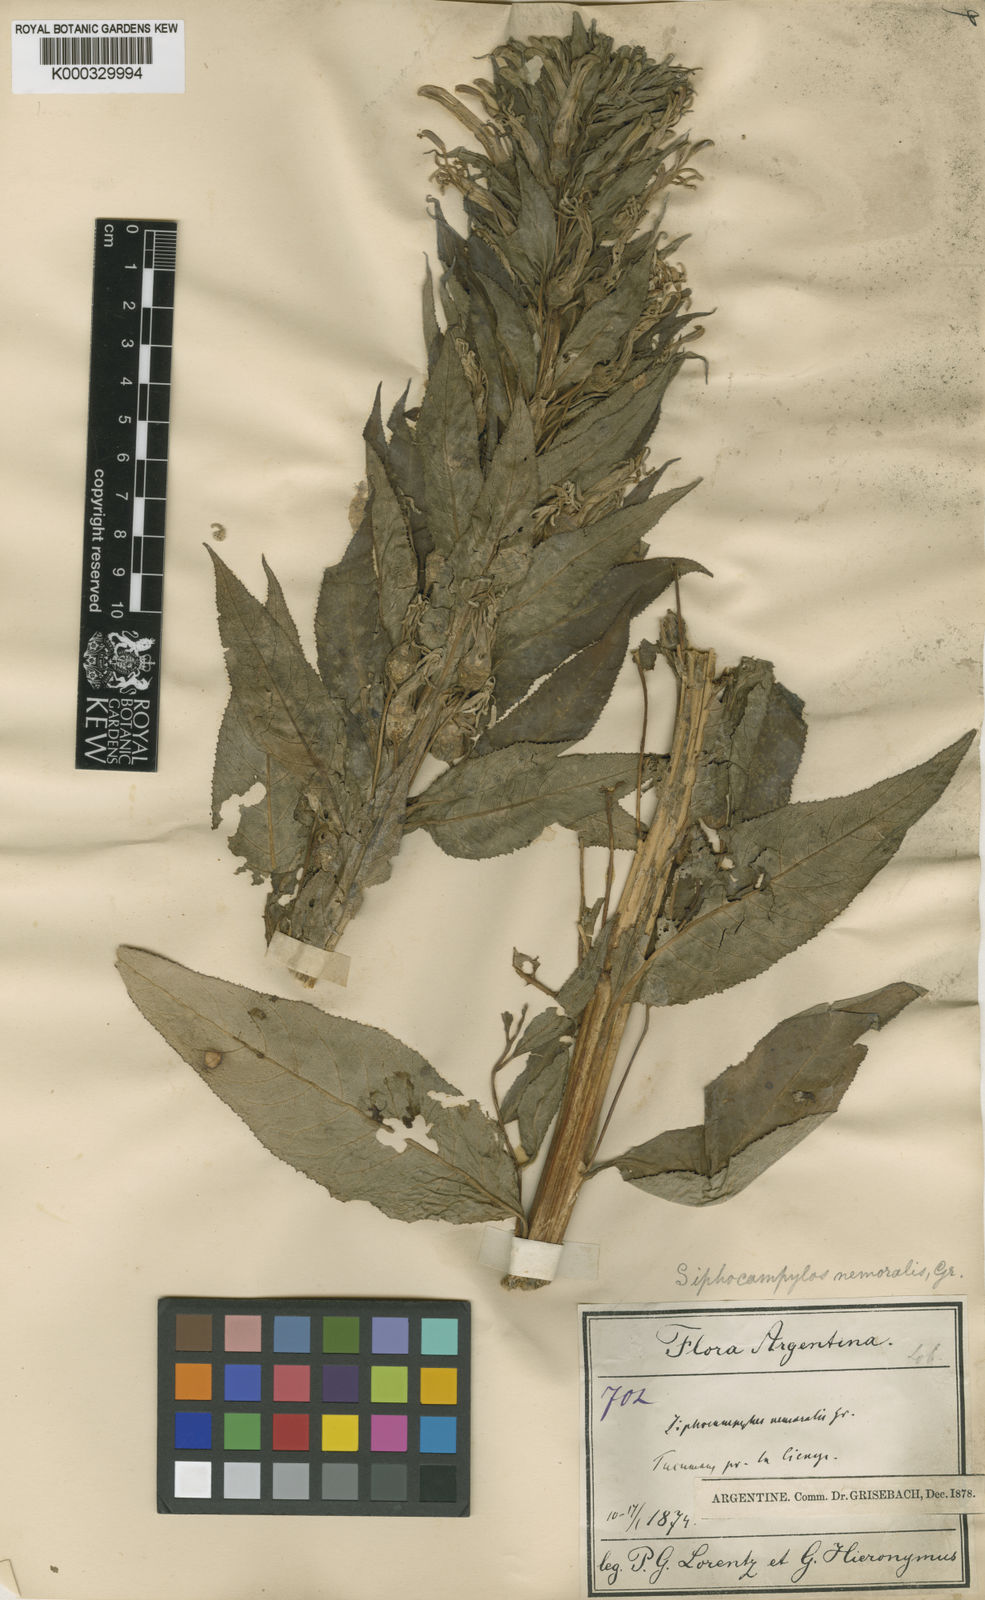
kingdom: Plantae
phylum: Tracheophyta
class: Magnoliopsida
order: Asterales
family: Campanulaceae
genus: Siphocampylus
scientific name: Siphocampylus nemoralis
